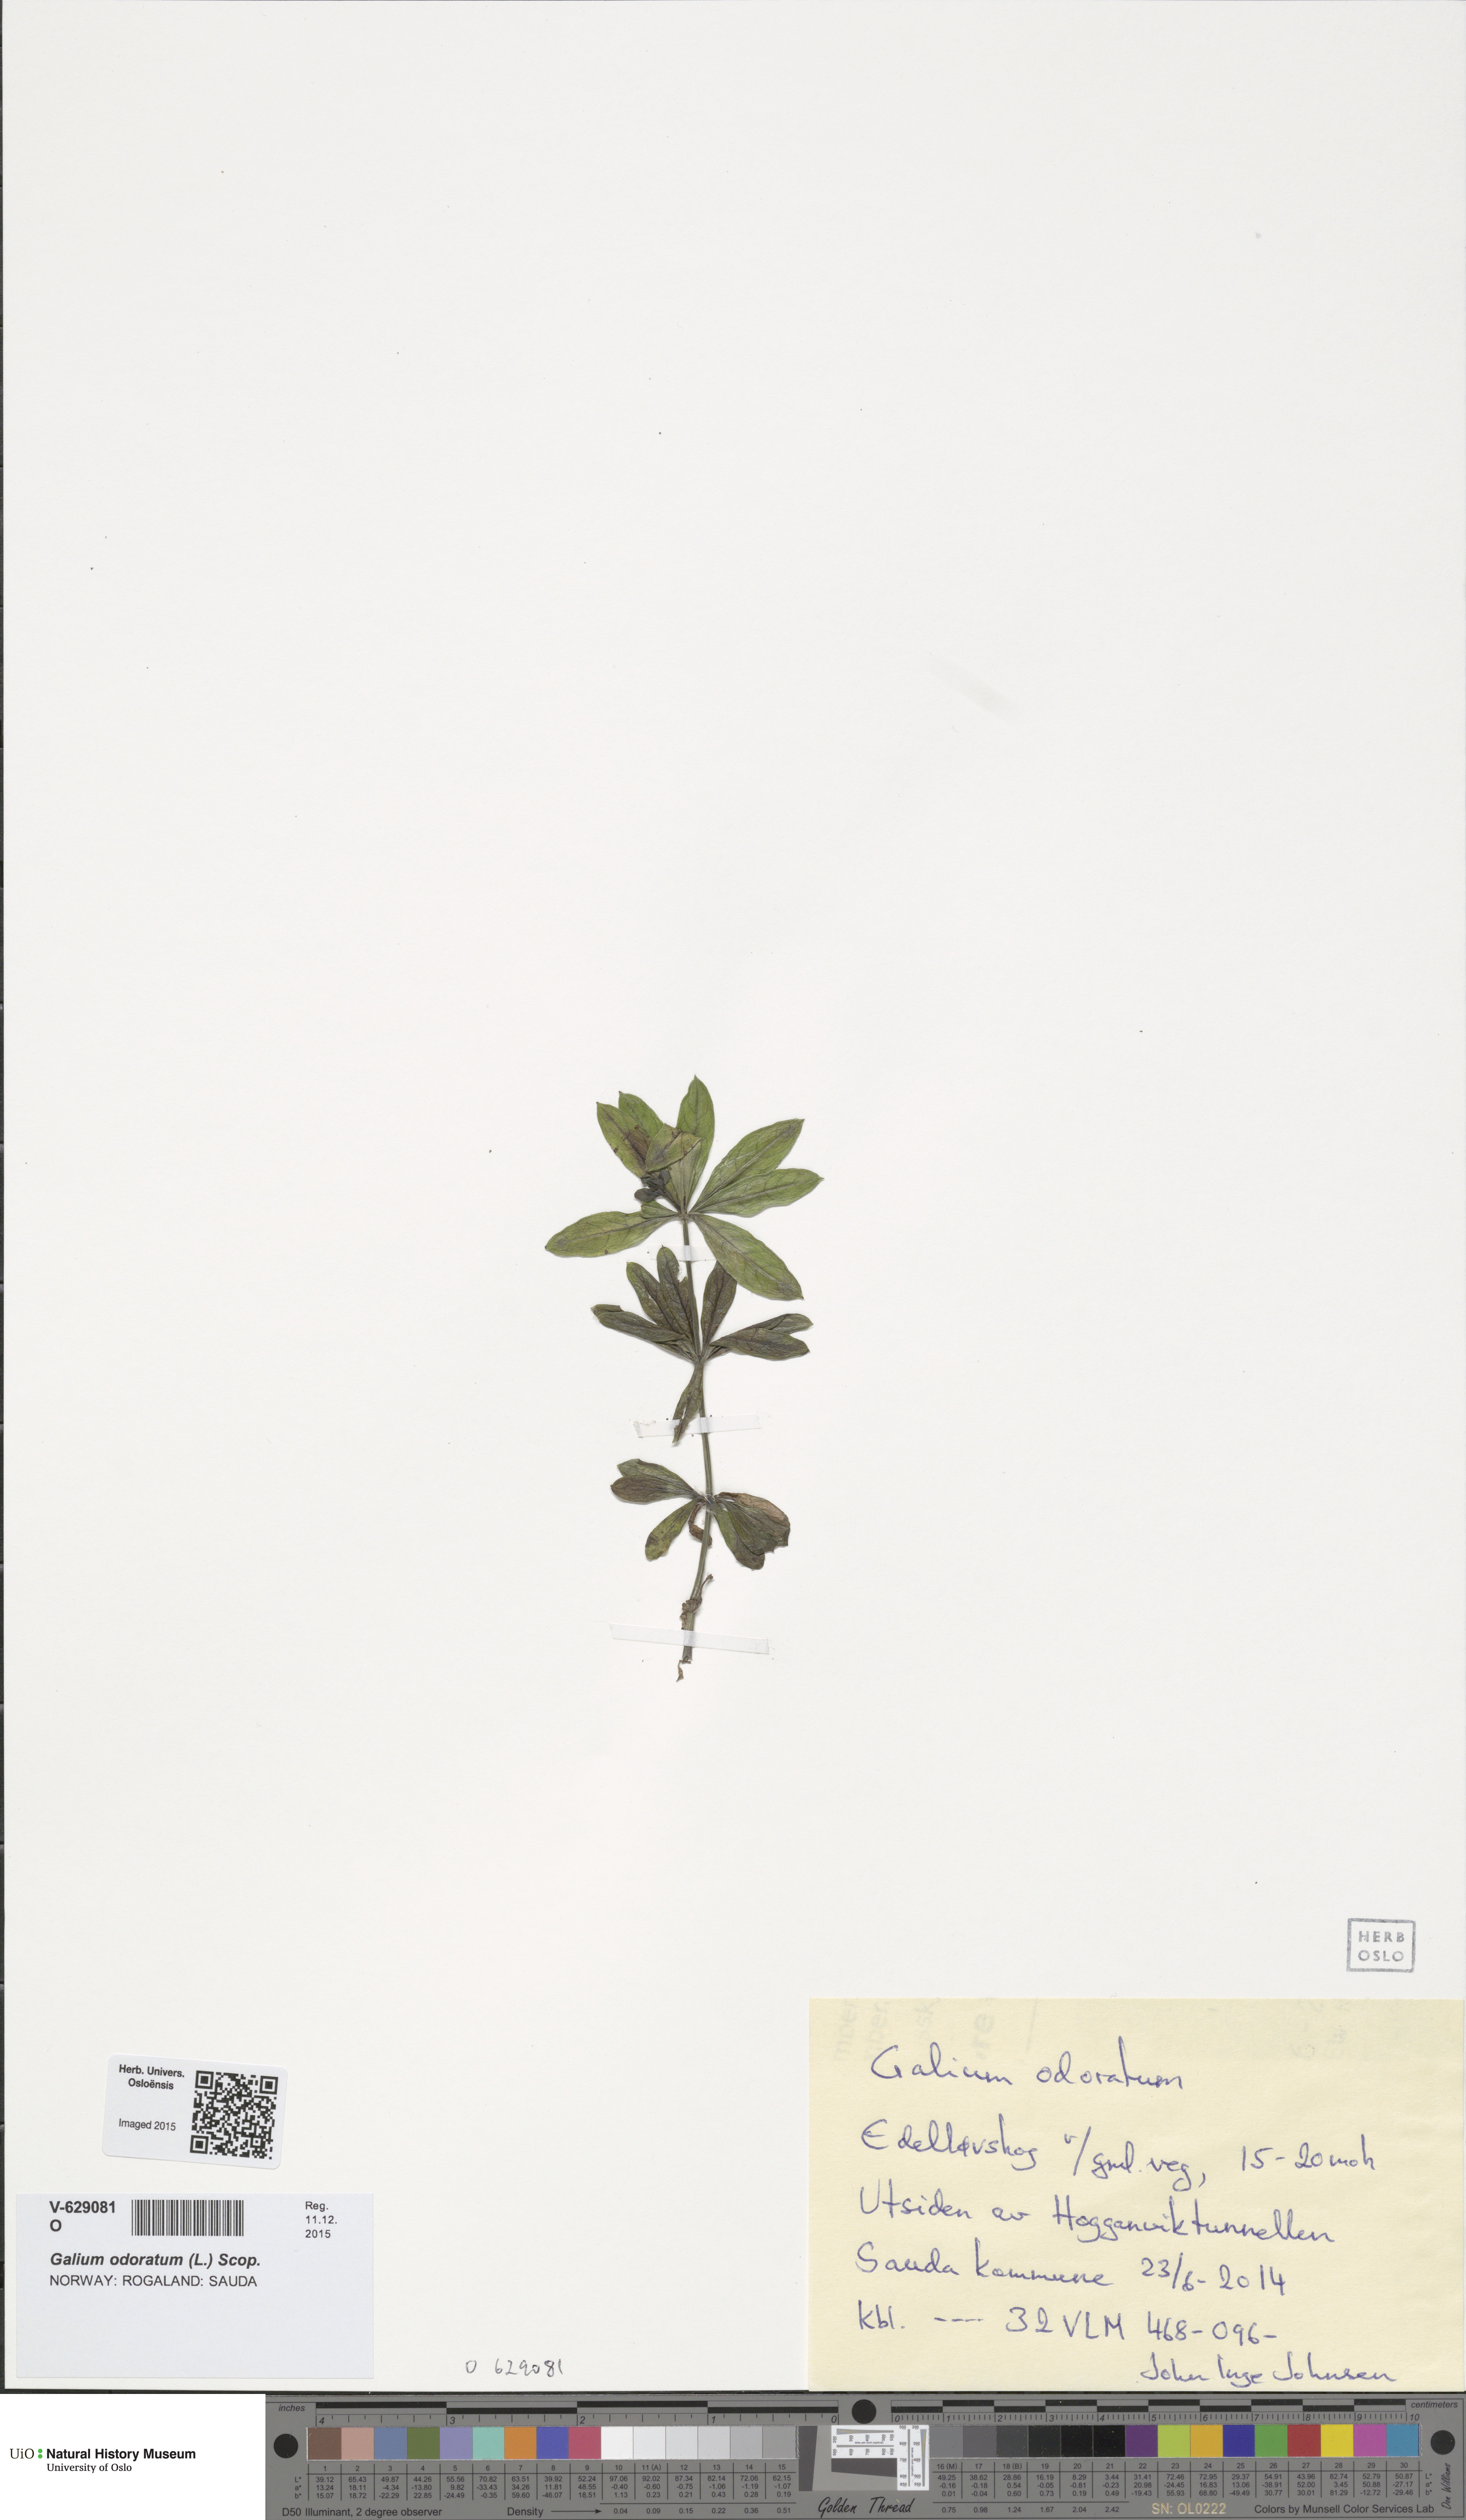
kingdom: Plantae
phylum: Tracheophyta
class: Magnoliopsida
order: Gentianales
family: Rubiaceae
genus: Galium
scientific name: Galium odoratum
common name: Sweet woodruff
